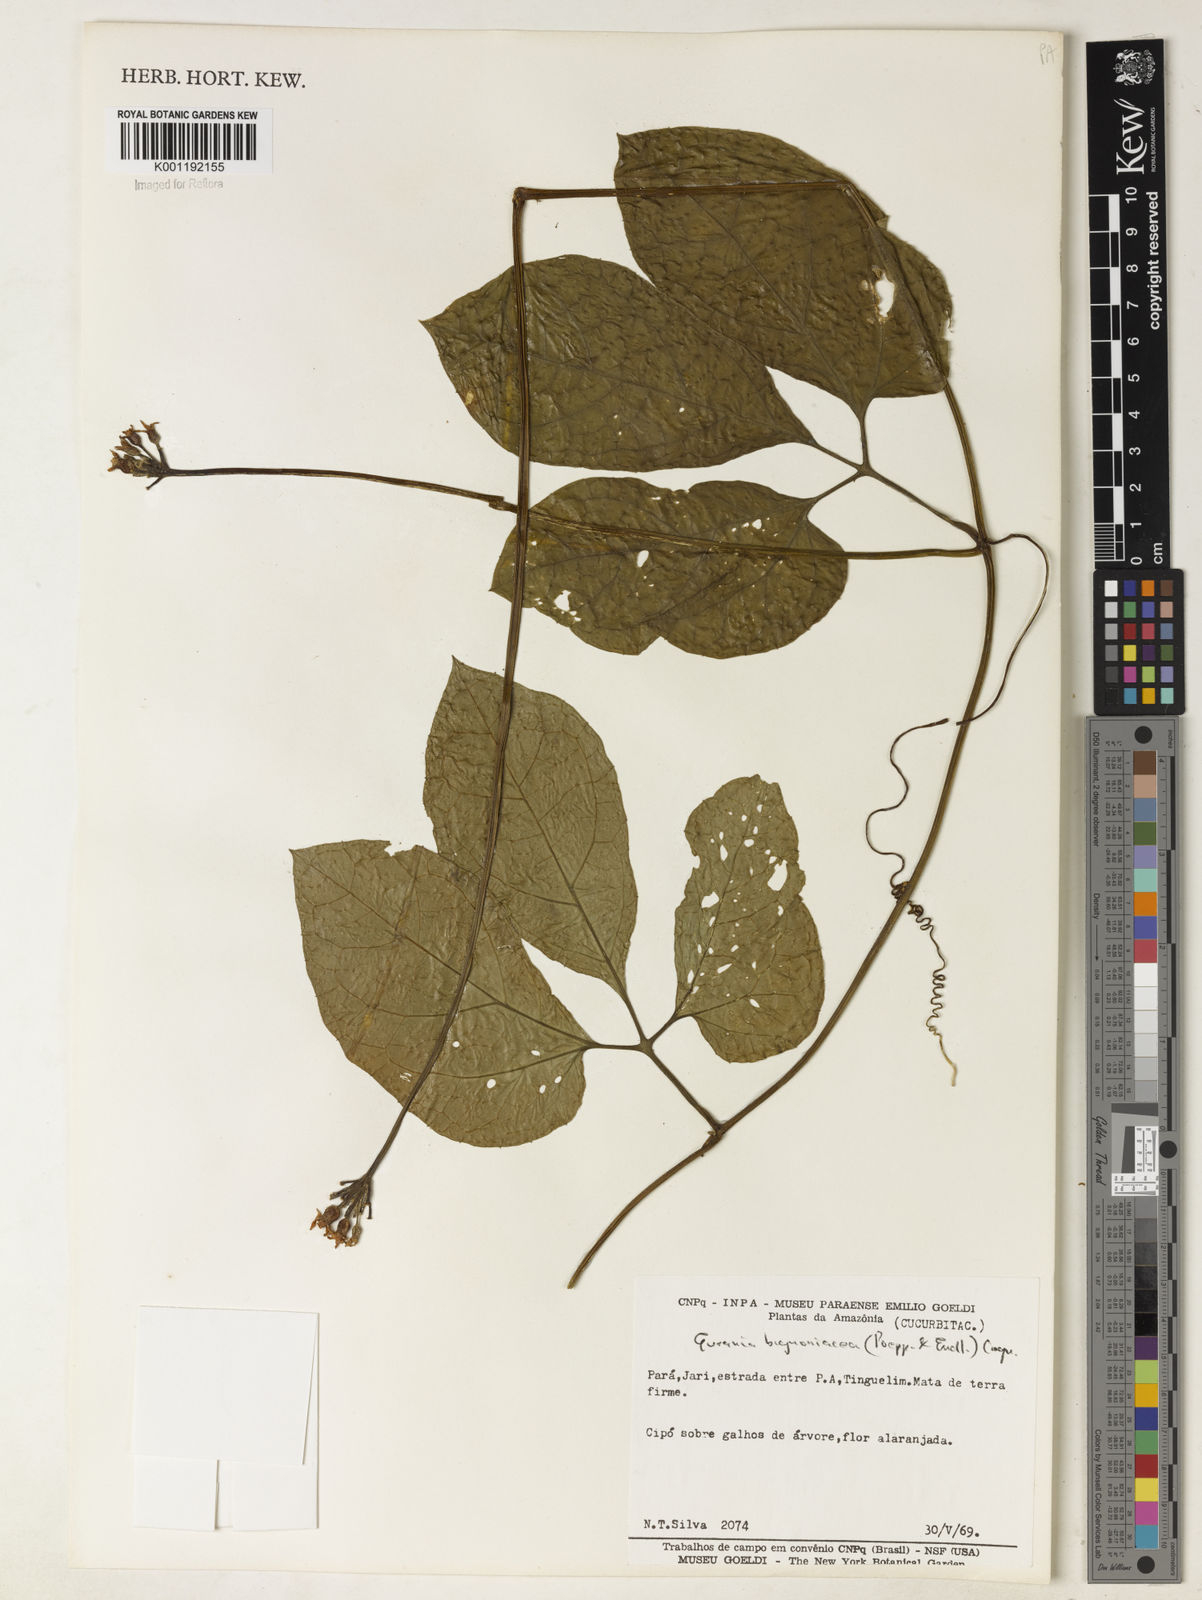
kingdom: Plantae
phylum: Tracheophyta
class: Magnoliopsida
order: Cucurbitales
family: Cucurbitaceae
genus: Gurania
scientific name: Gurania bignoniacea
